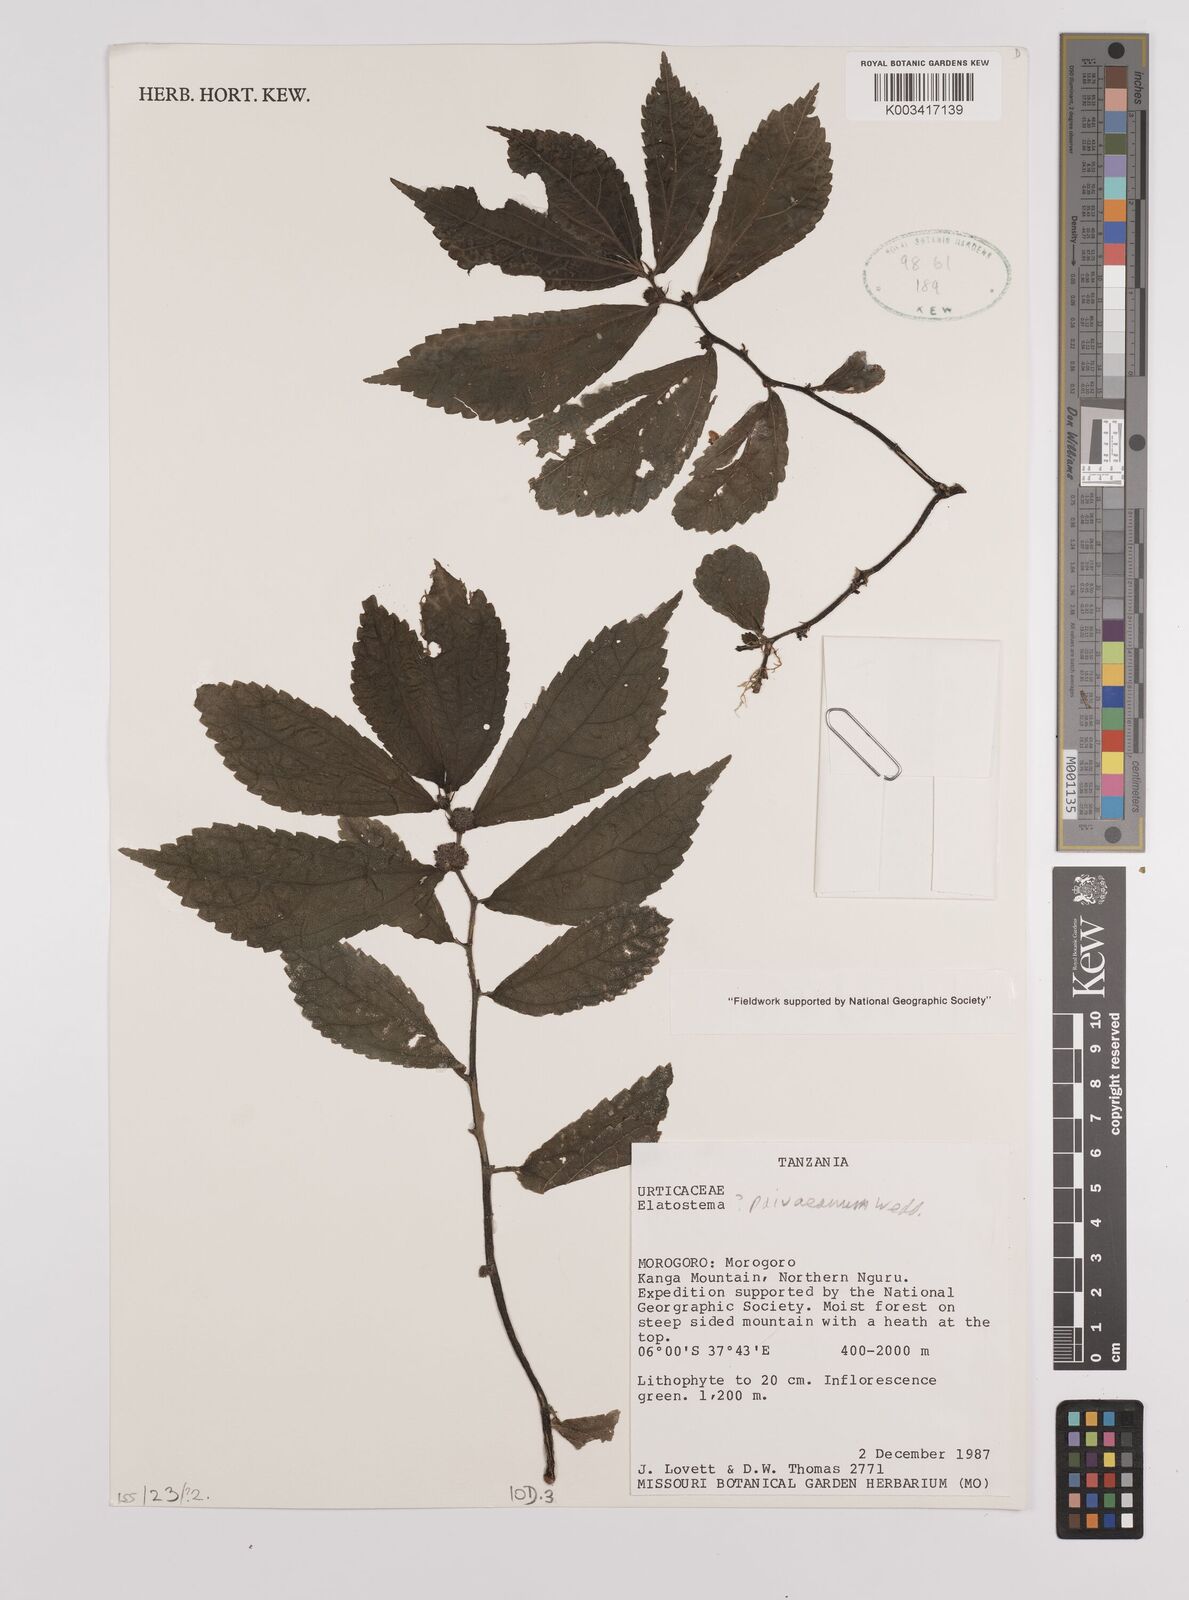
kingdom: Plantae
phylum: Tracheophyta
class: Magnoliopsida
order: Rosales
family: Urticaceae
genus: Elatostema
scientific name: Elatostema paivaeanum
